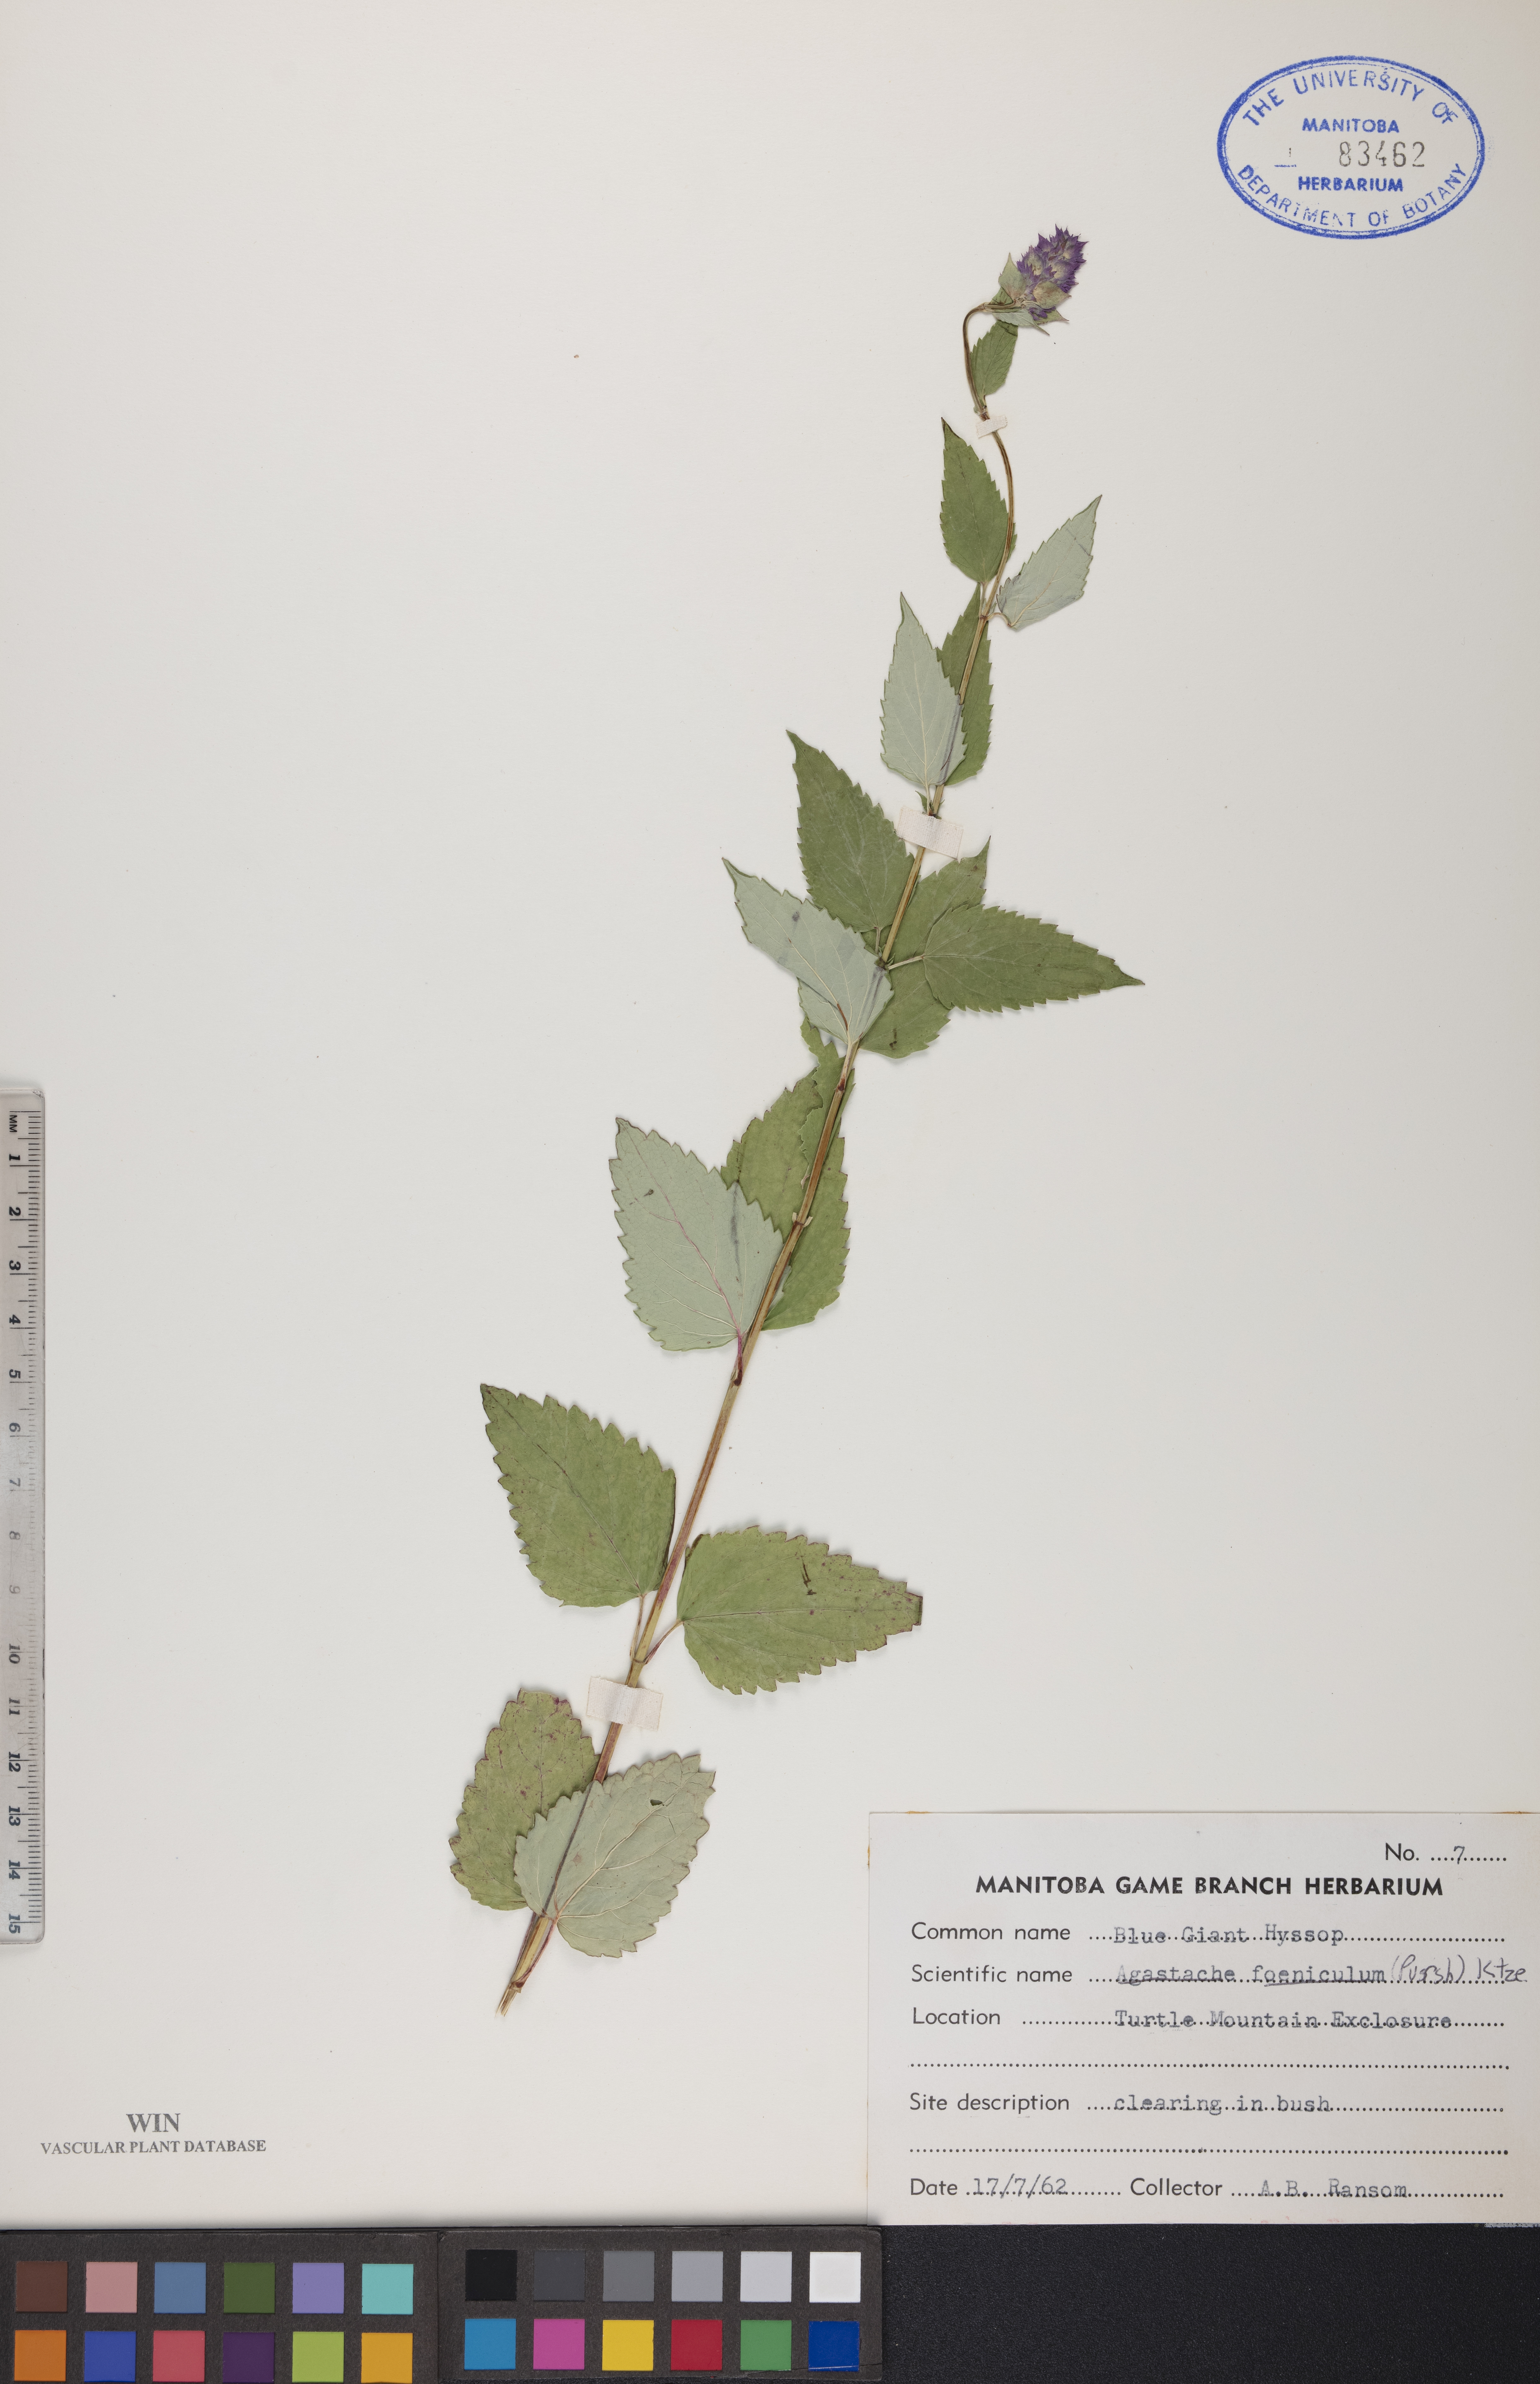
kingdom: Plantae
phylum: Tracheophyta
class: Magnoliopsida
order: Lamiales
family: Lamiaceae
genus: Agastache
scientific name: Agastache foeniculum
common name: Anise hyssop
